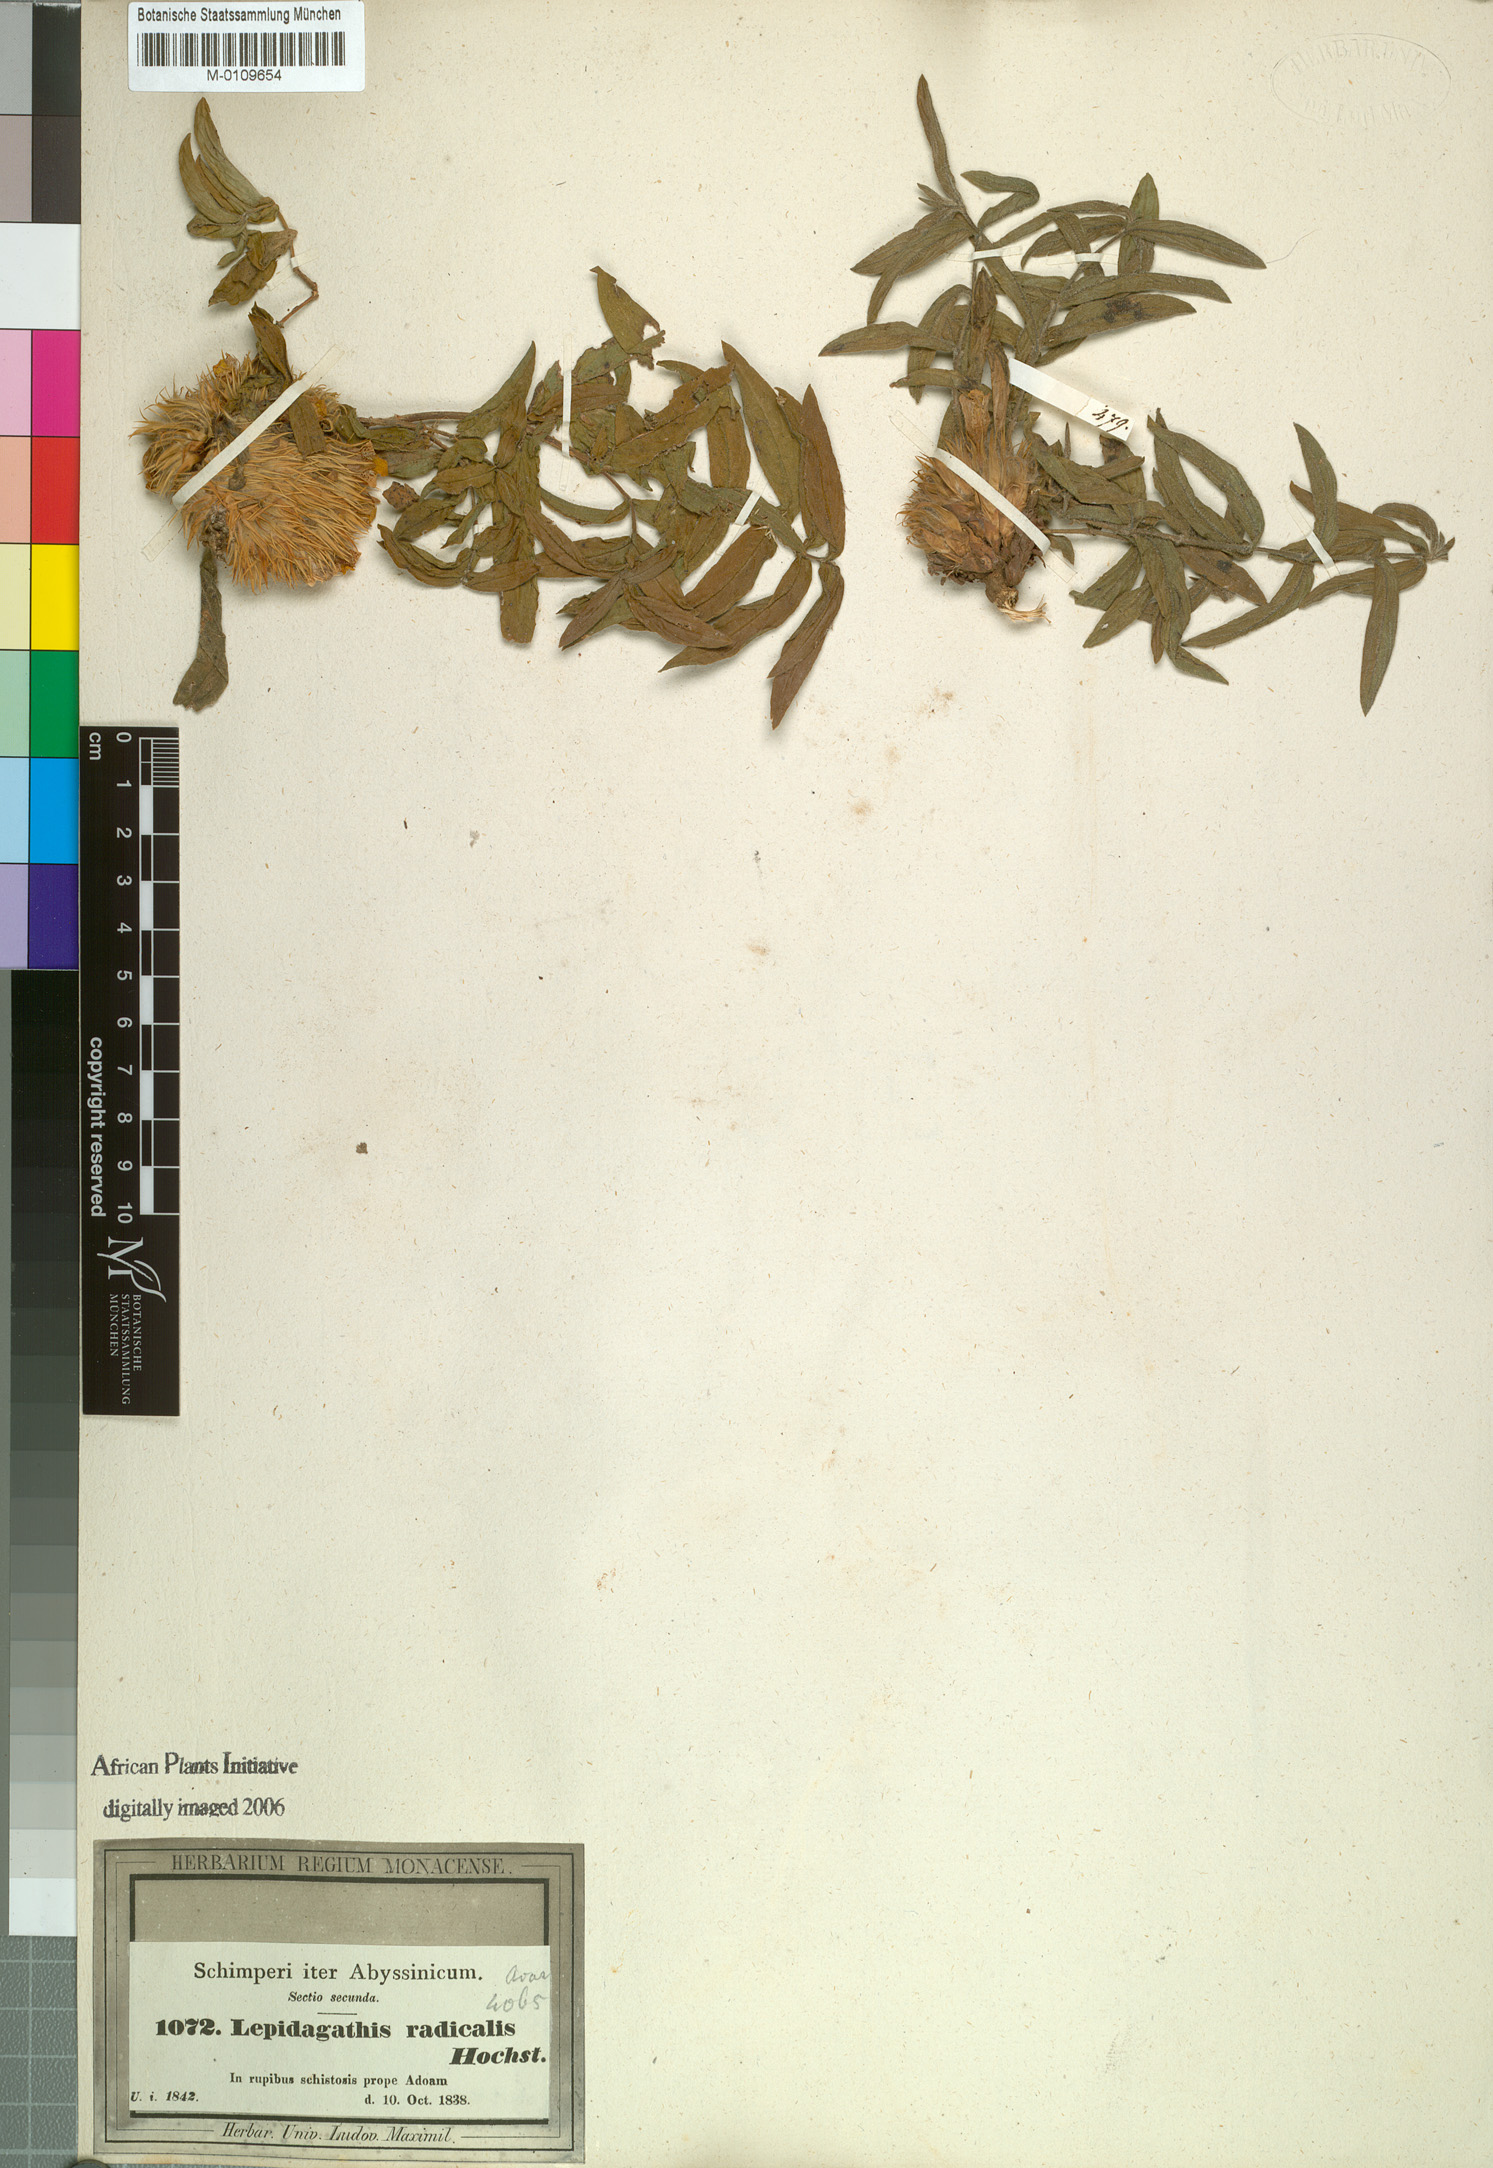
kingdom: Plantae
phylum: Tracheophyta
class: Magnoliopsida
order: Lamiales
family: Acanthaceae
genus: Lepidagathis
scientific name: Lepidagathis collina
